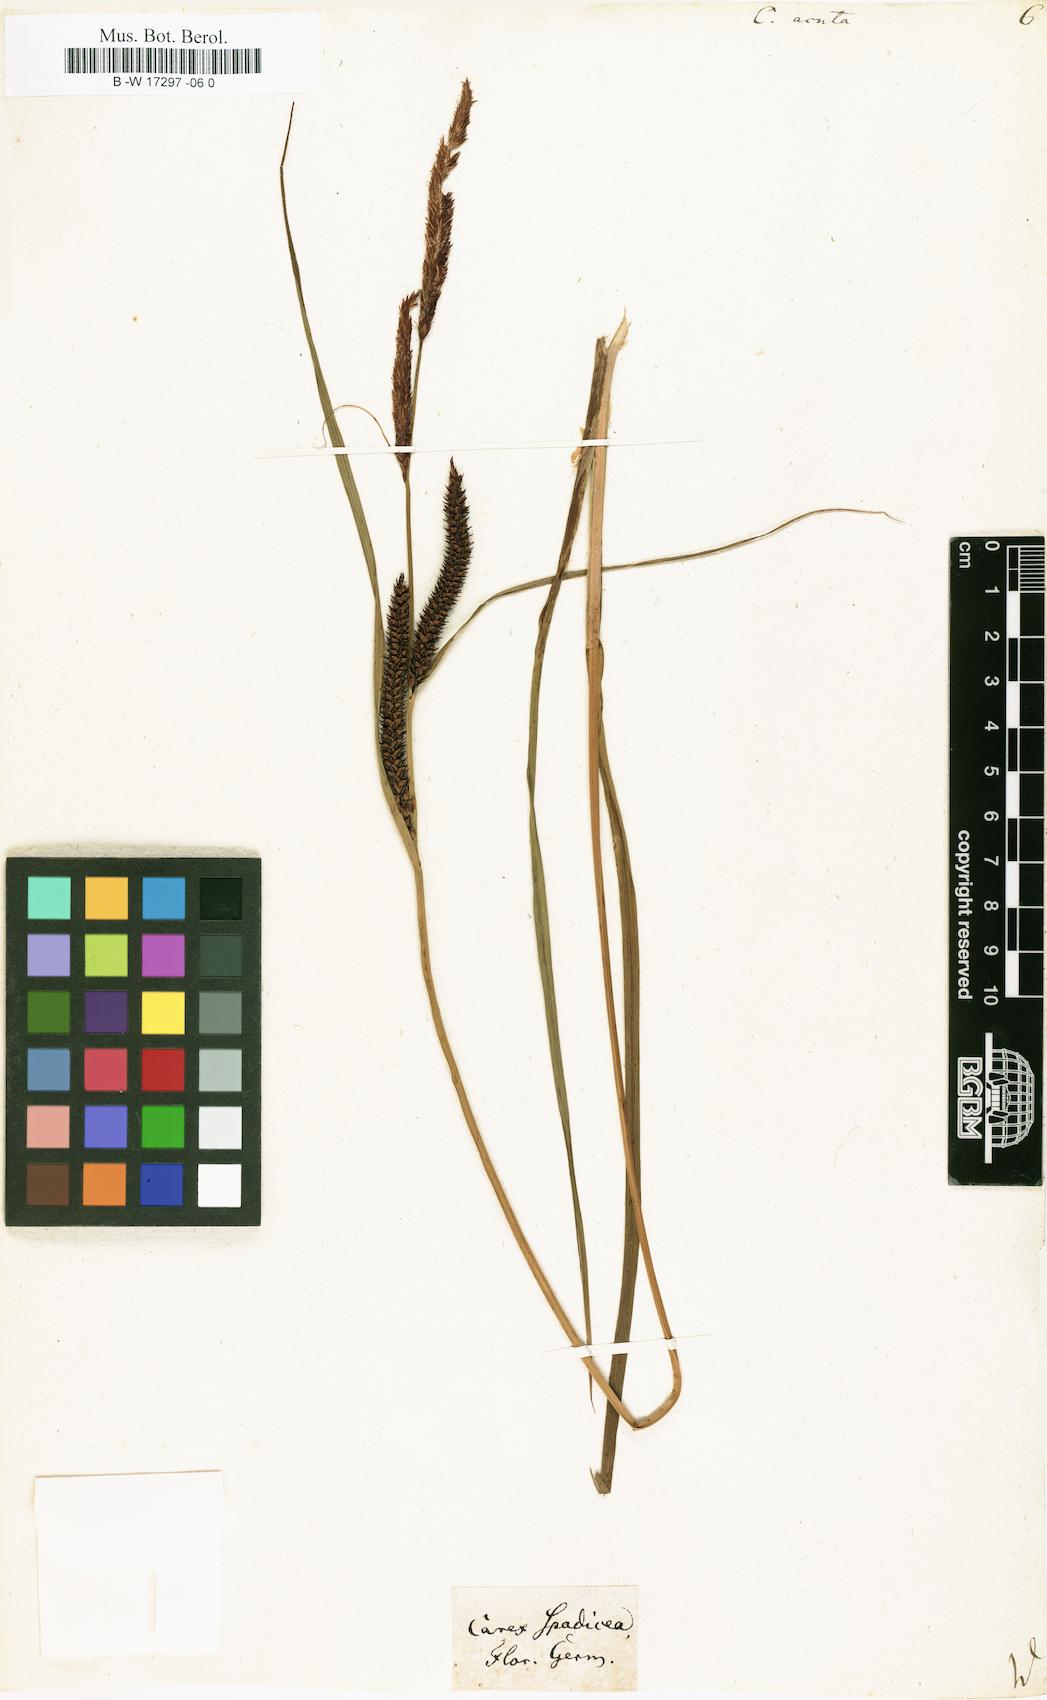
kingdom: Plantae
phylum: Tracheophyta
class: Liliopsida
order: Poales
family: Cyperaceae
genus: Carex
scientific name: Carex acuta
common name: Slender tufted-sedge
